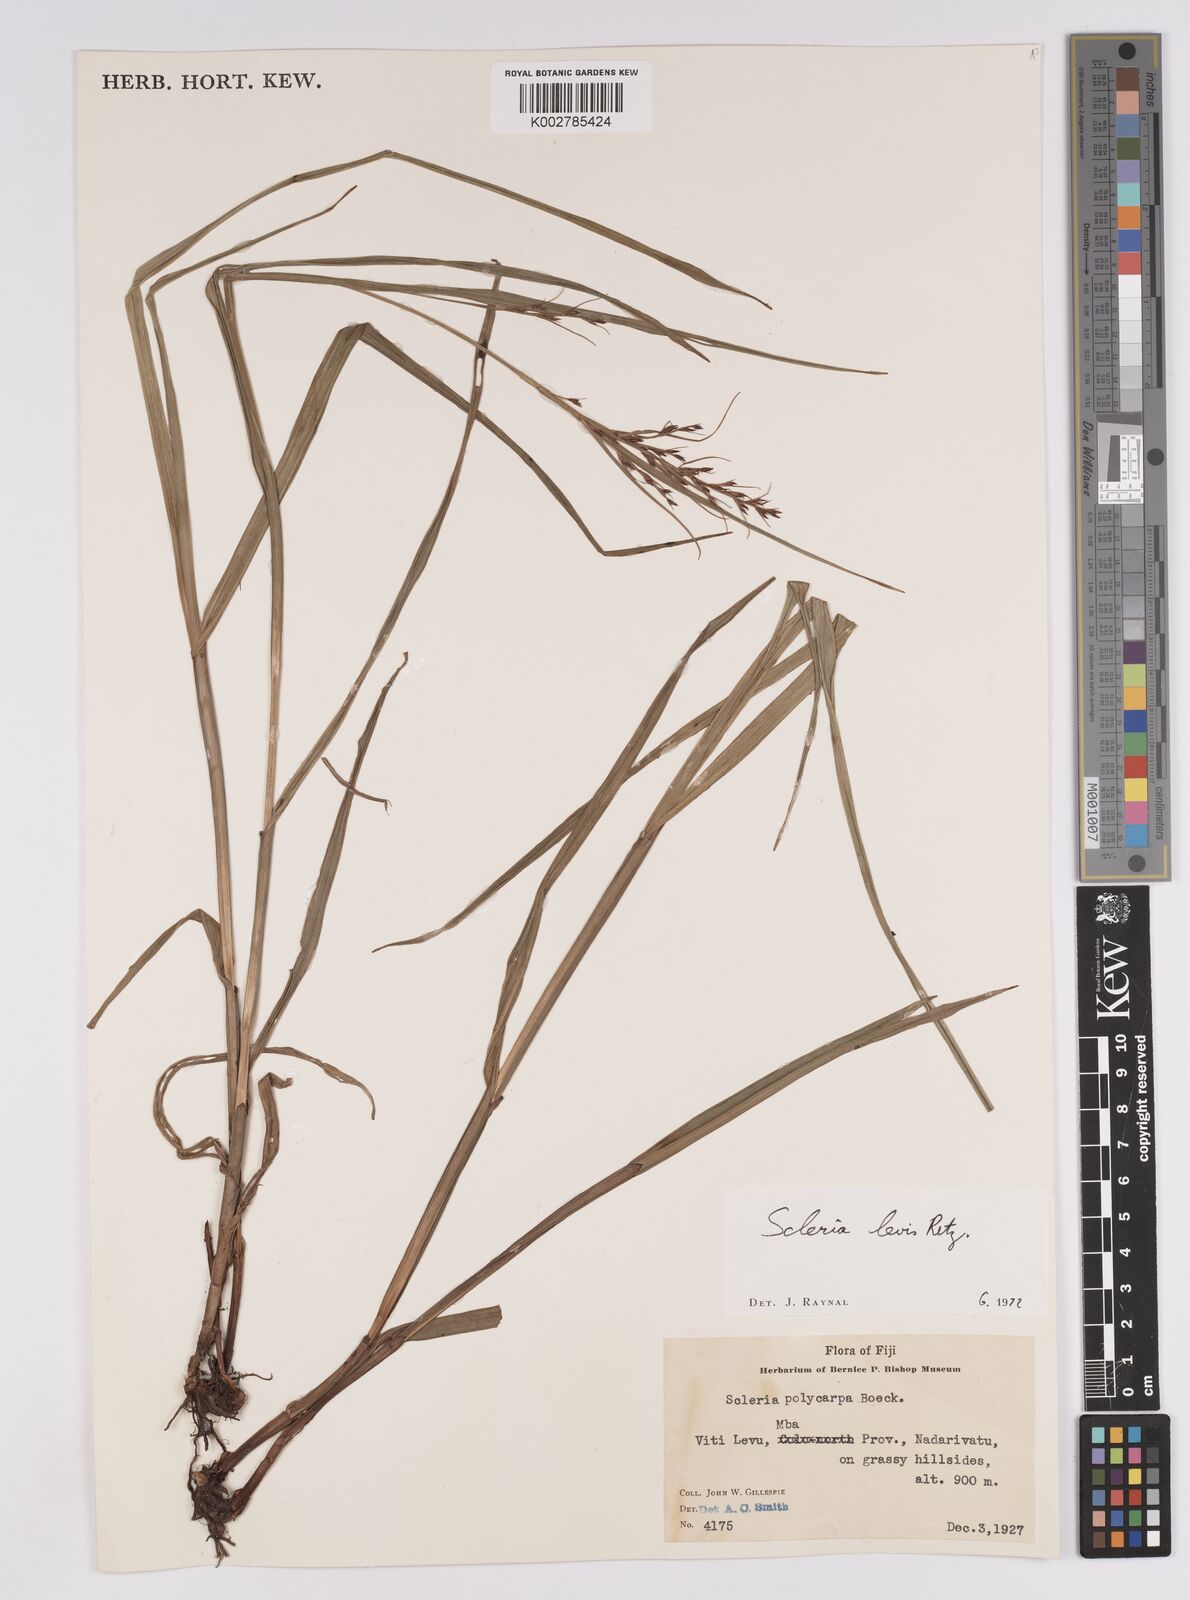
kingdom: Plantae
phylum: Tracheophyta
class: Liliopsida
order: Poales
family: Cyperaceae
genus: Scleria
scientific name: Scleria levis
